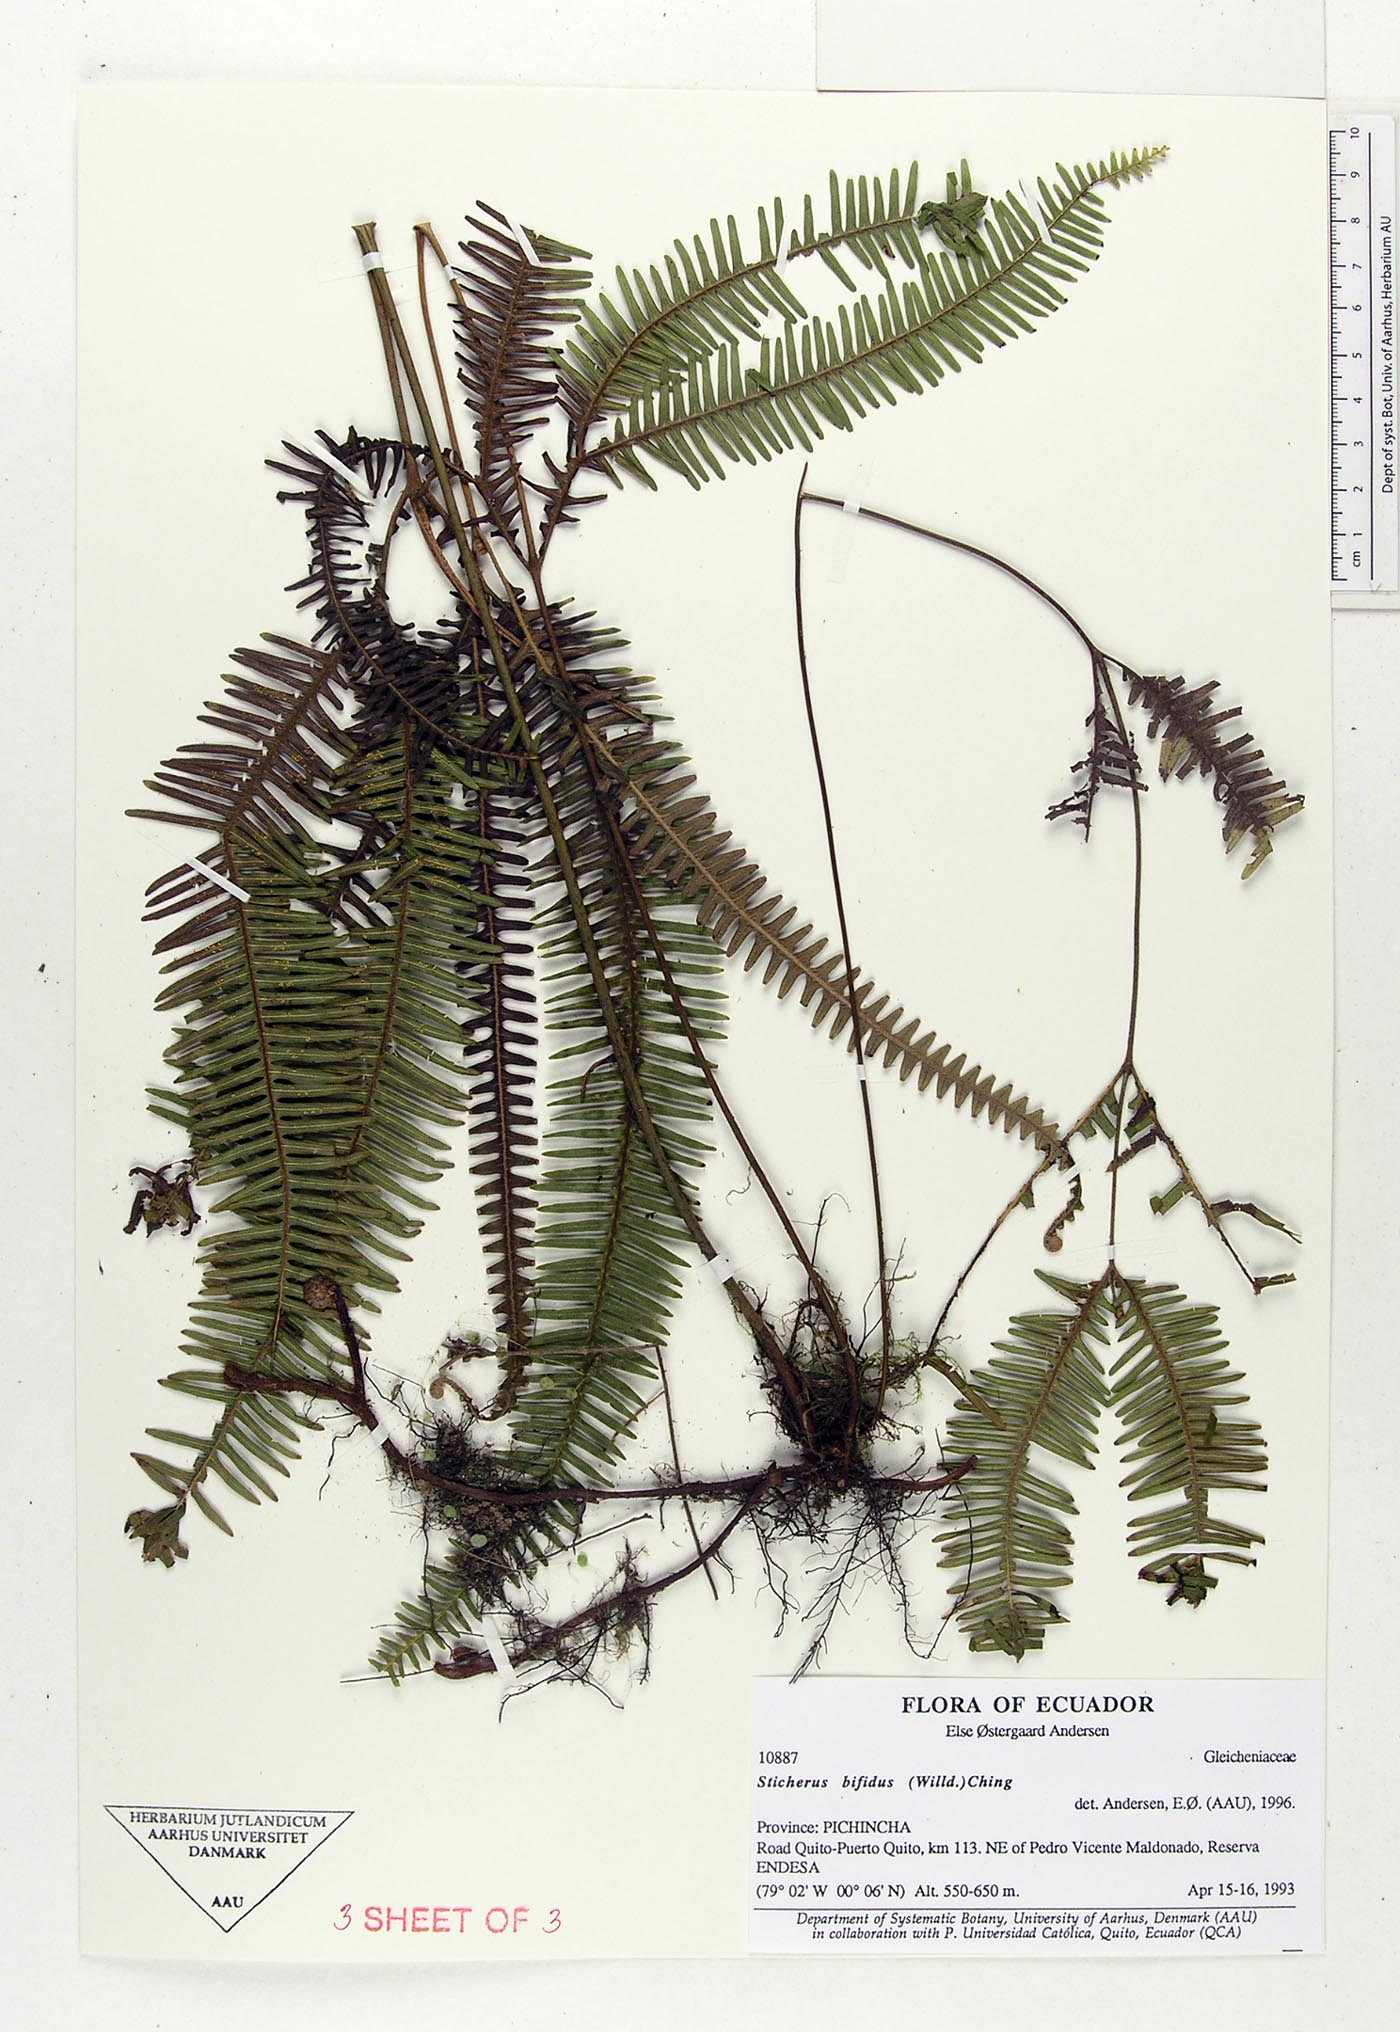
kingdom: Plantae
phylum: Tracheophyta
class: Polypodiopsida
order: Gleicheniales
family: Gleicheniaceae
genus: Sticherus
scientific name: Sticherus bifidus
